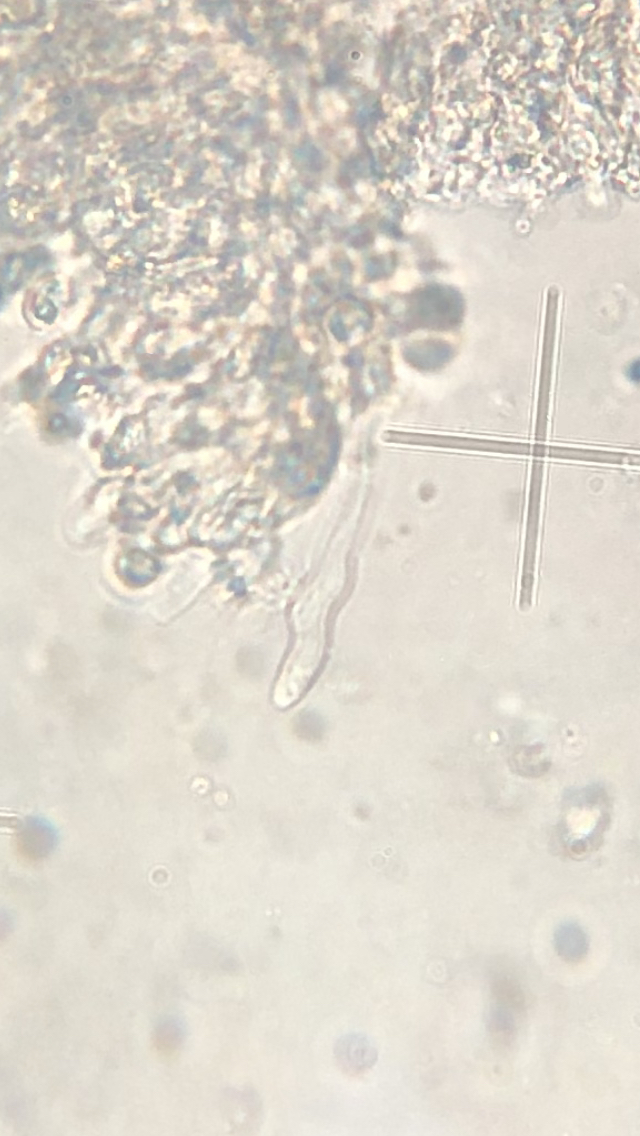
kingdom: Fungi
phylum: Basidiomycota
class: Agaricomycetes
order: Agaricales
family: Porotheleaceae
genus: Phloeomana
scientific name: Phloeomana speirea
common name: kvist-huesvamp
